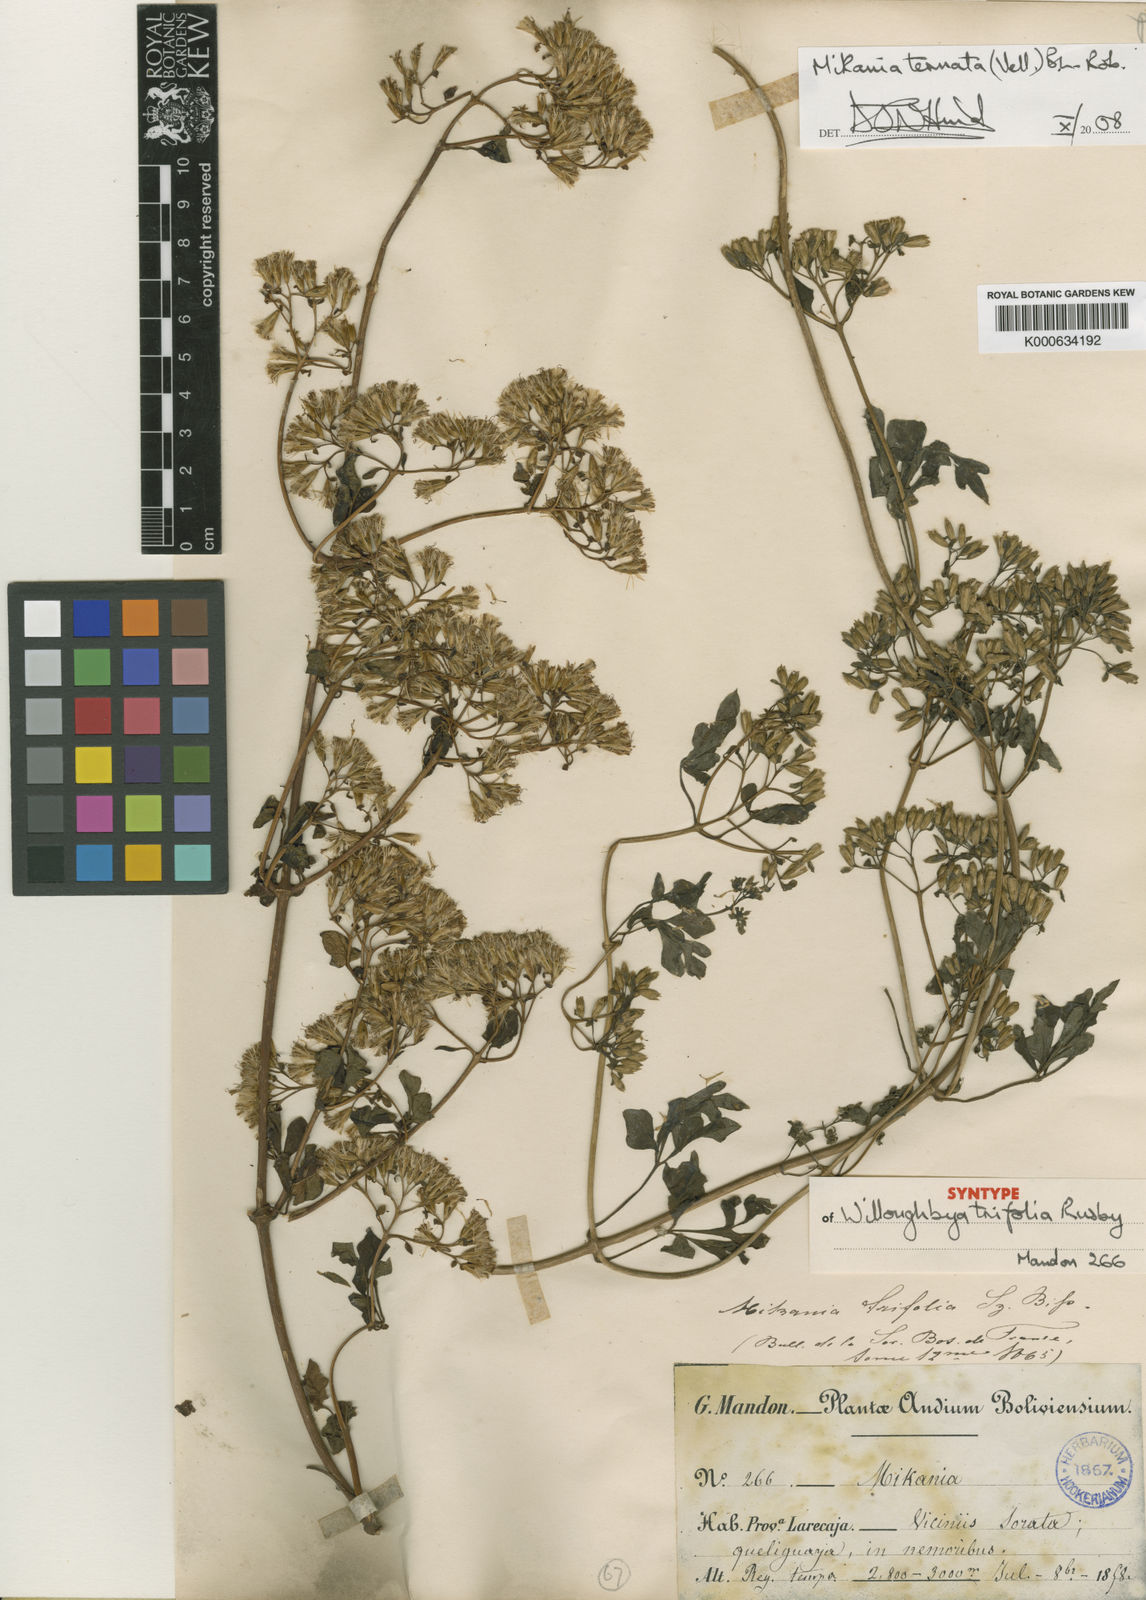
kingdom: Plantae
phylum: Tracheophyta
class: Magnoliopsida
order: Asterales
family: Asteraceae
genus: Mikania
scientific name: Mikania ternata
